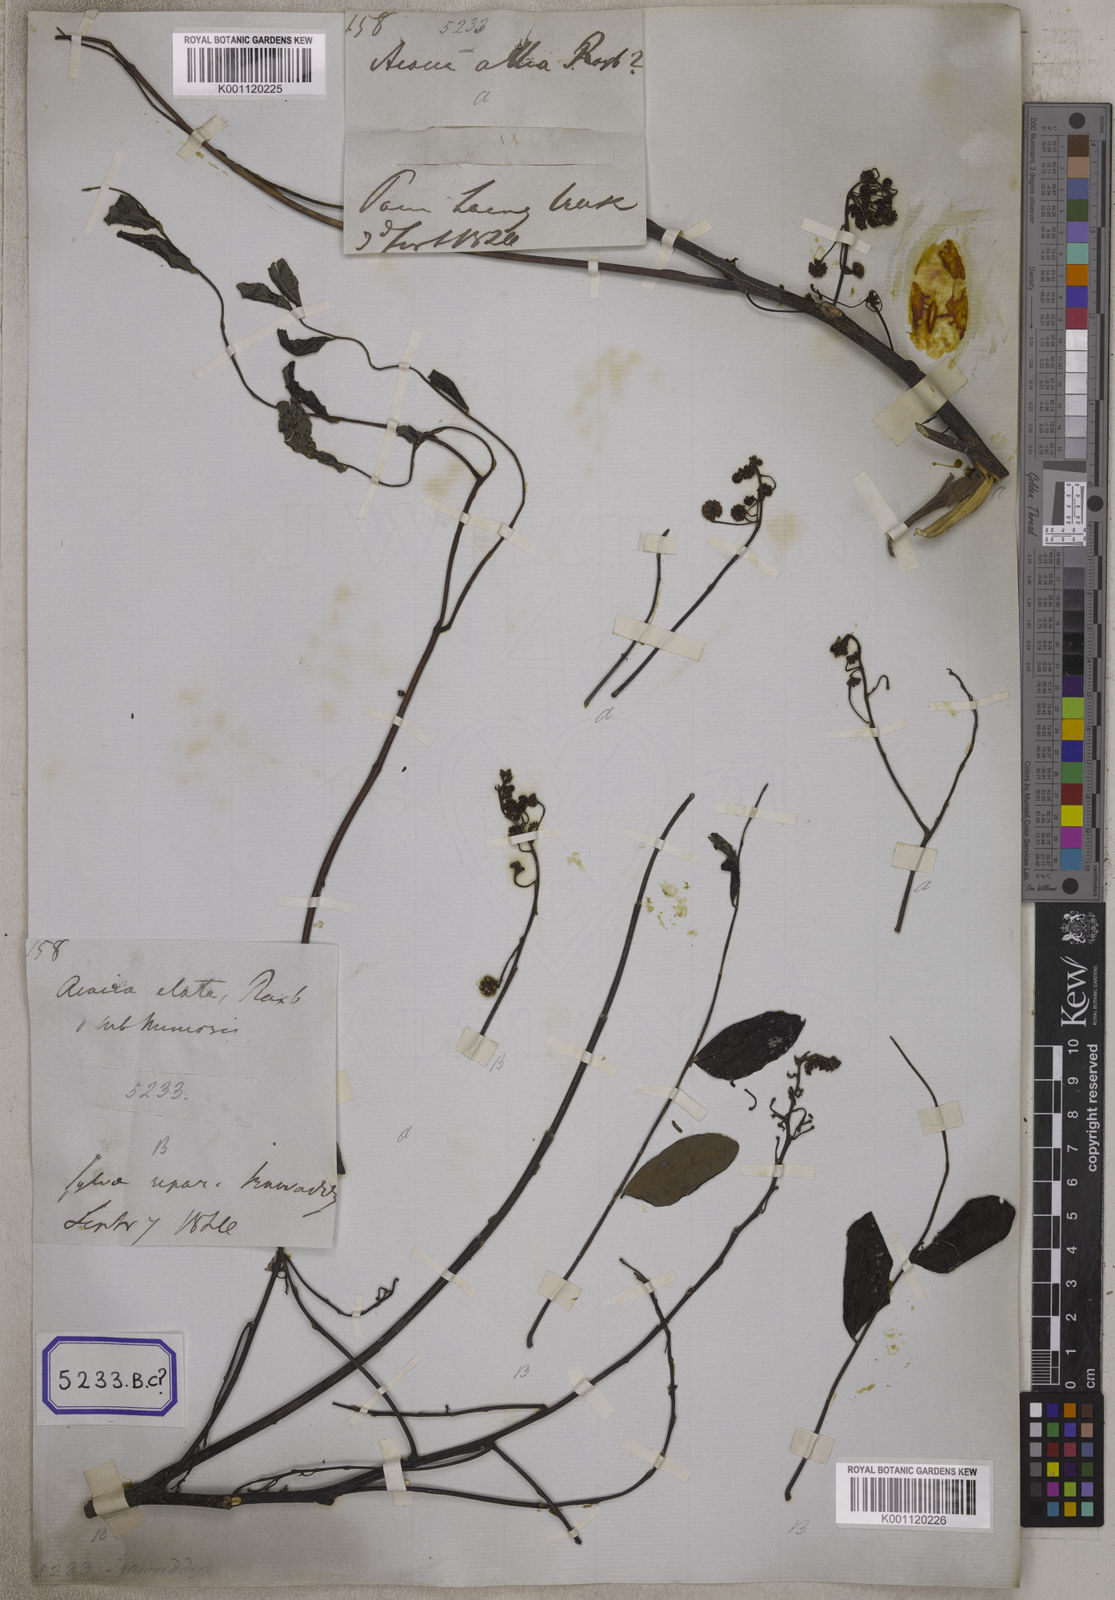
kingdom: Plantae
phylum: Tracheophyta
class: Magnoliopsida
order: Fabales
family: Fabaceae
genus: Acacia
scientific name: Acacia
